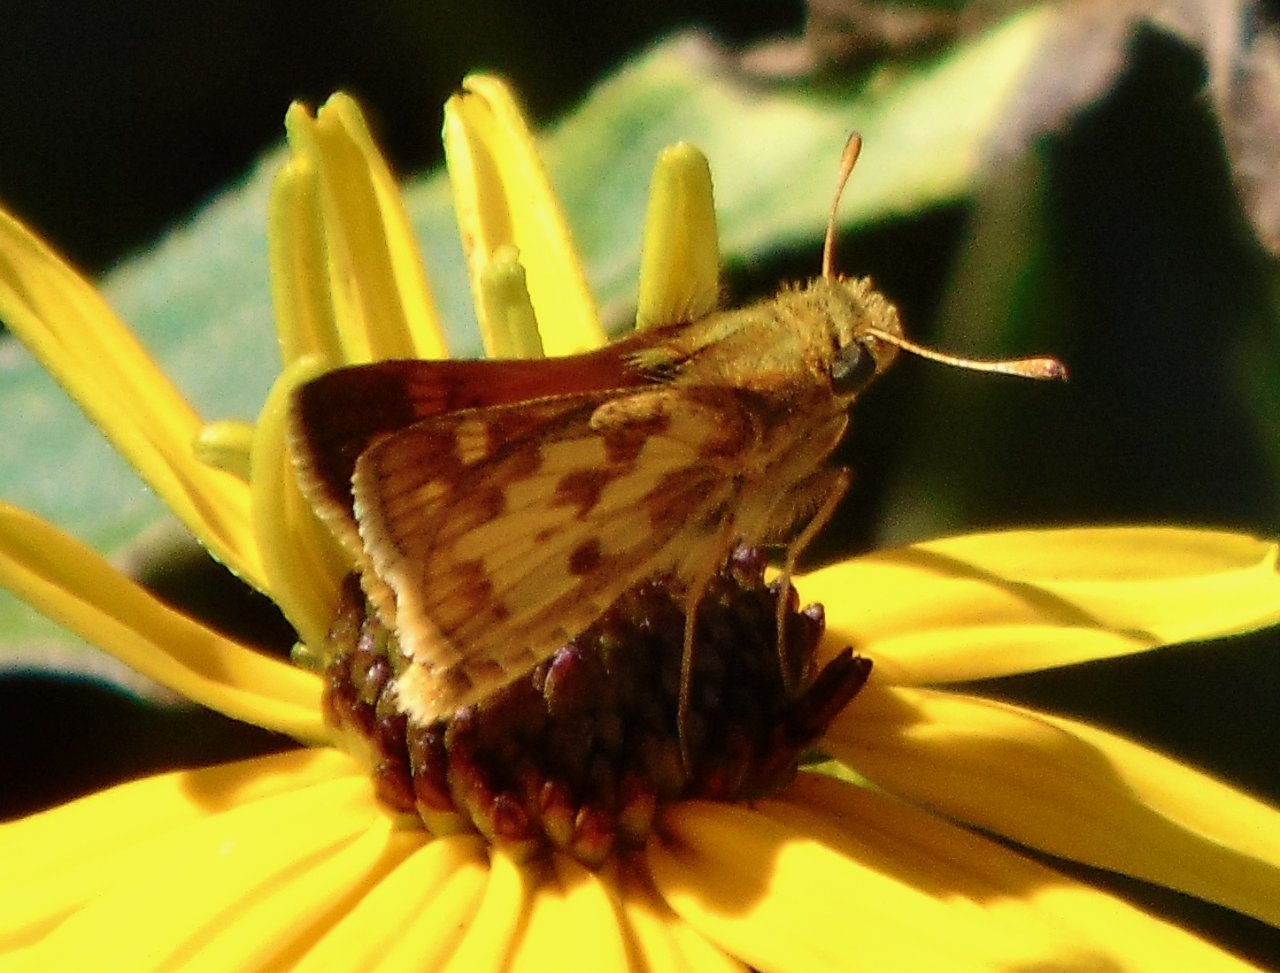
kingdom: Animalia
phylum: Arthropoda
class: Insecta
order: Lepidoptera
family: Hesperiidae
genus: Polites
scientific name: Polites coras
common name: Peck's Skipper
